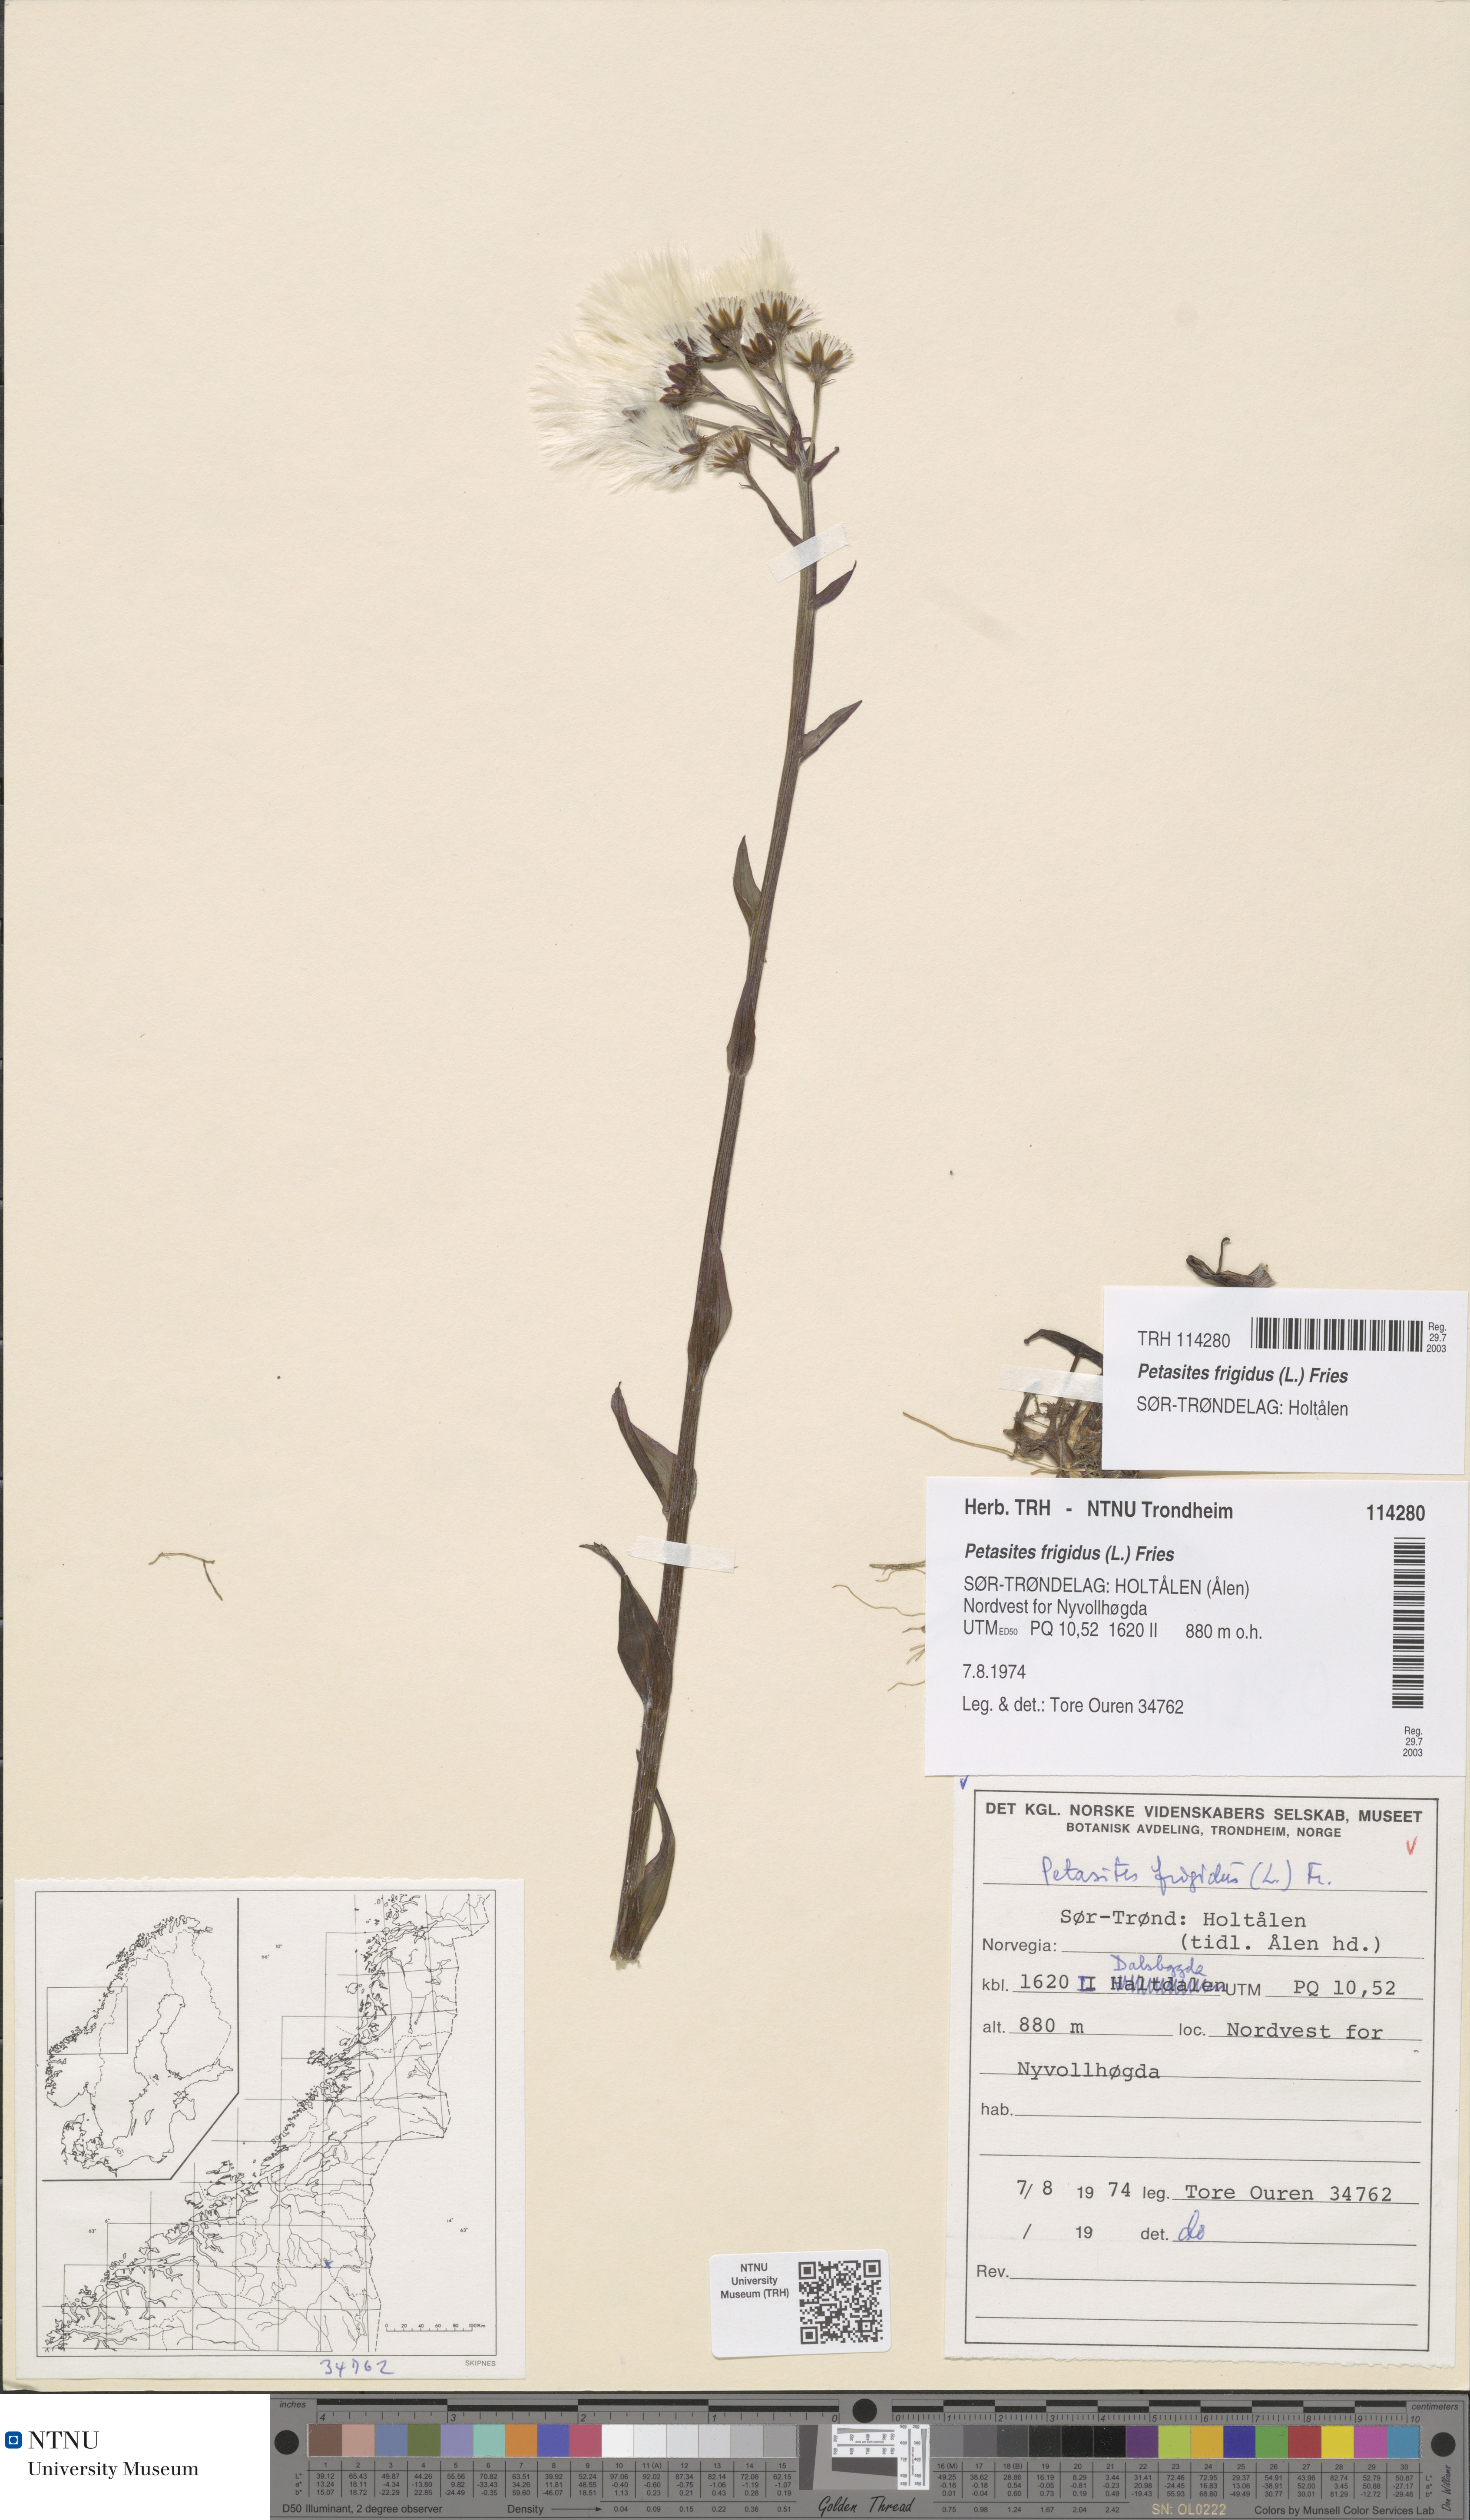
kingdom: Plantae
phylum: Tracheophyta
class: Magnoliopsida
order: Asterales
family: Asteraceae
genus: Petasites
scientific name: Petasites frigidus
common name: Arctic butterbur
